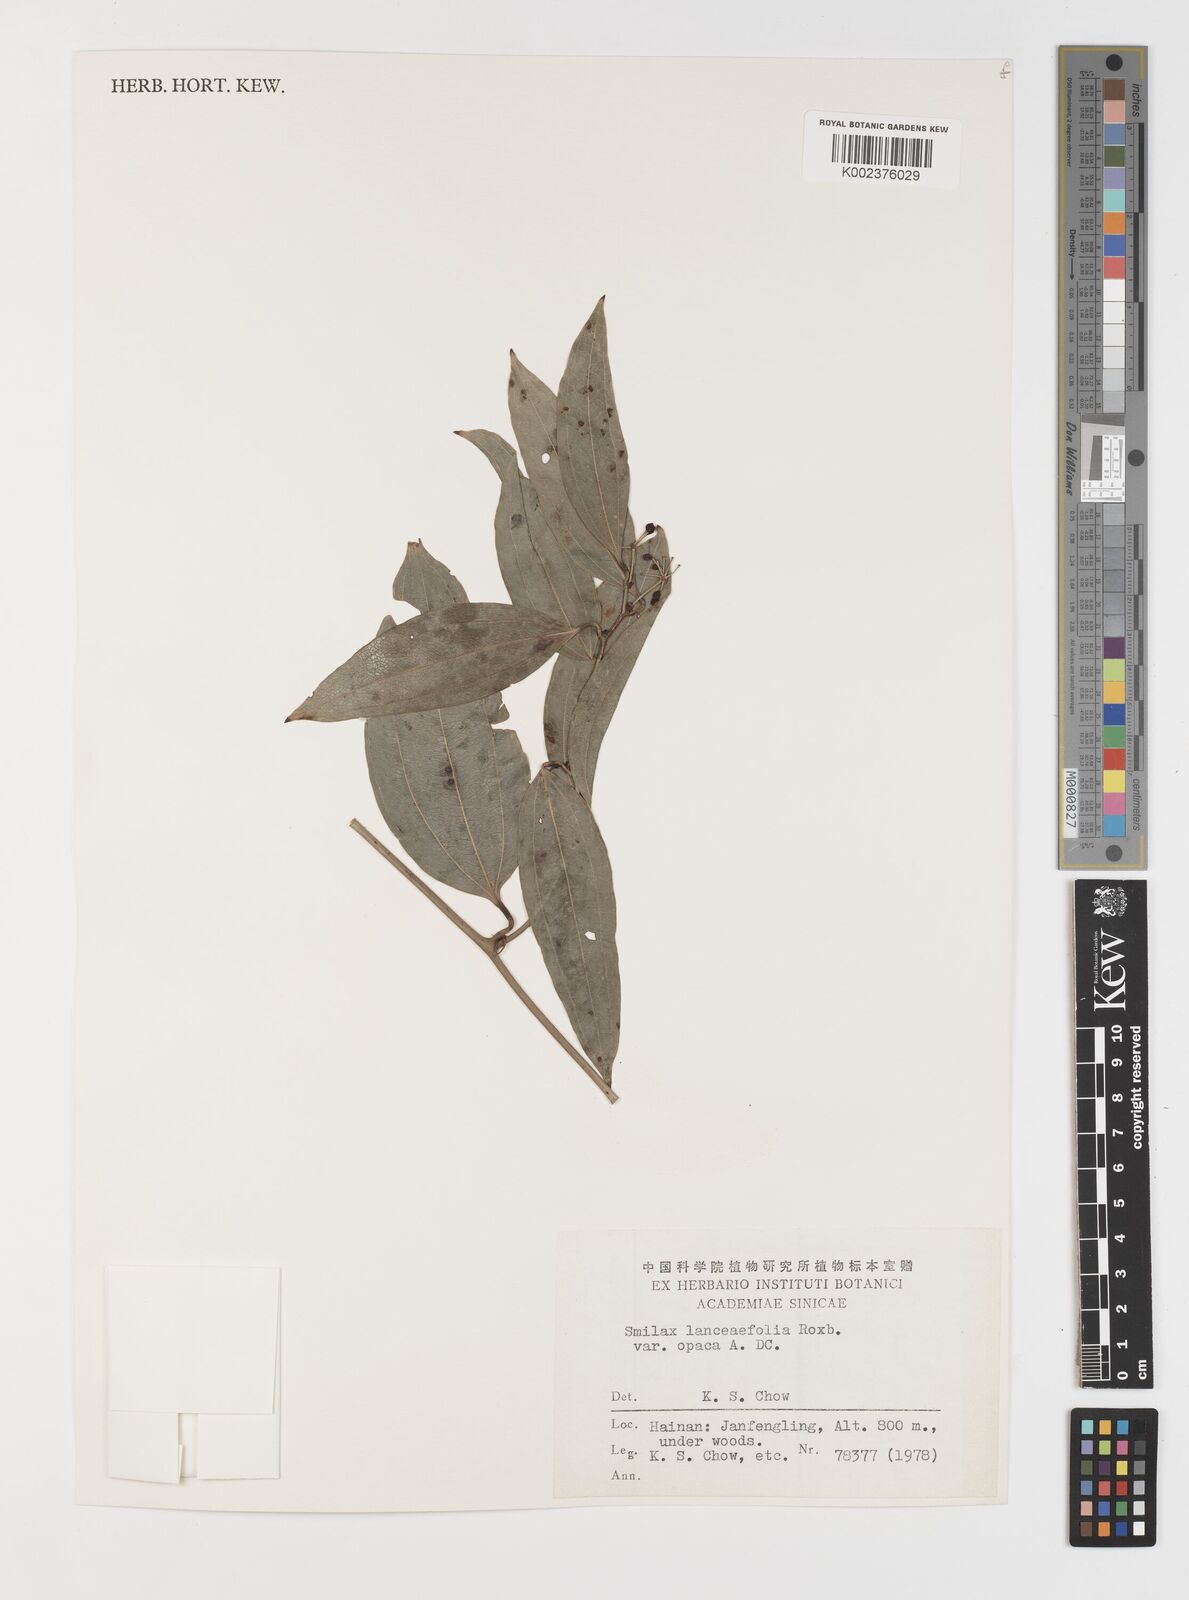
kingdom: Plantae
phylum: Tracheophyta
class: Liliopsida
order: Liliales
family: Smilacaceae
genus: Smilax
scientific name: Smilax laevis
